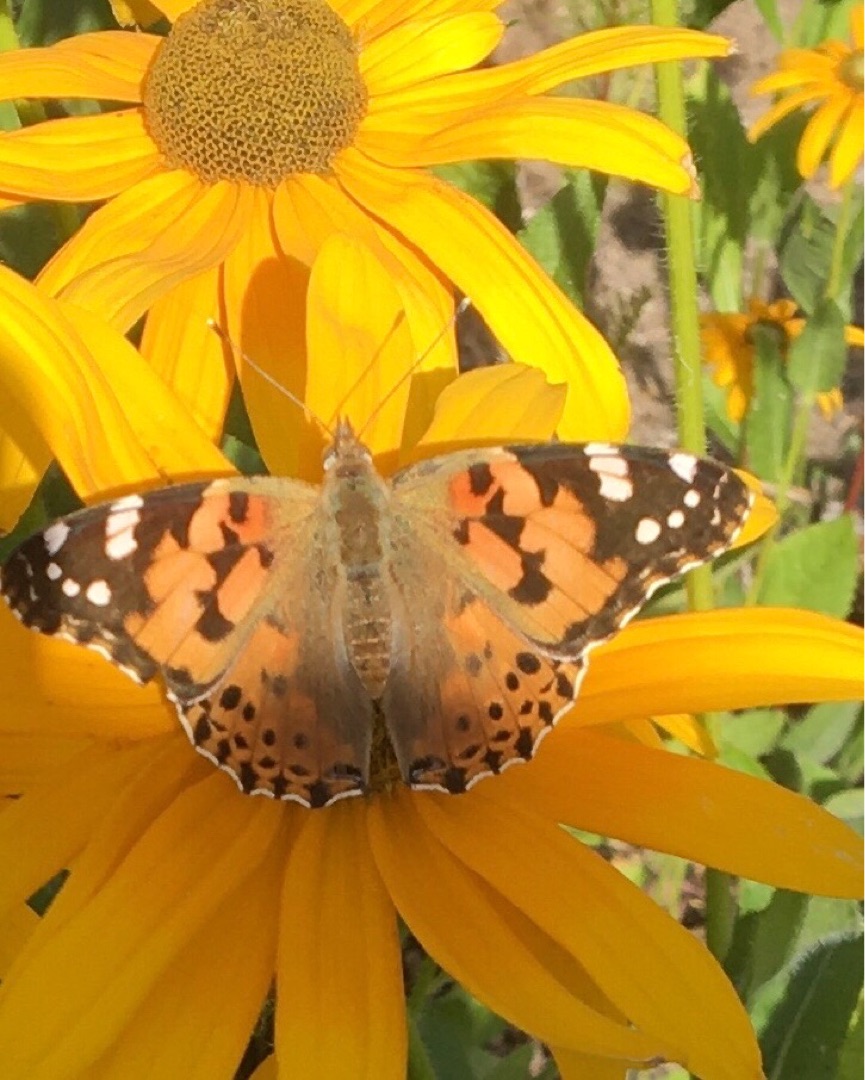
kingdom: Animalia
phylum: Arthropoda
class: Insecta
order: Lepidoptera
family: Nymphalidae
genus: Vanessa
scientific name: Vanessa cardui
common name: Tidselsommerfugl
